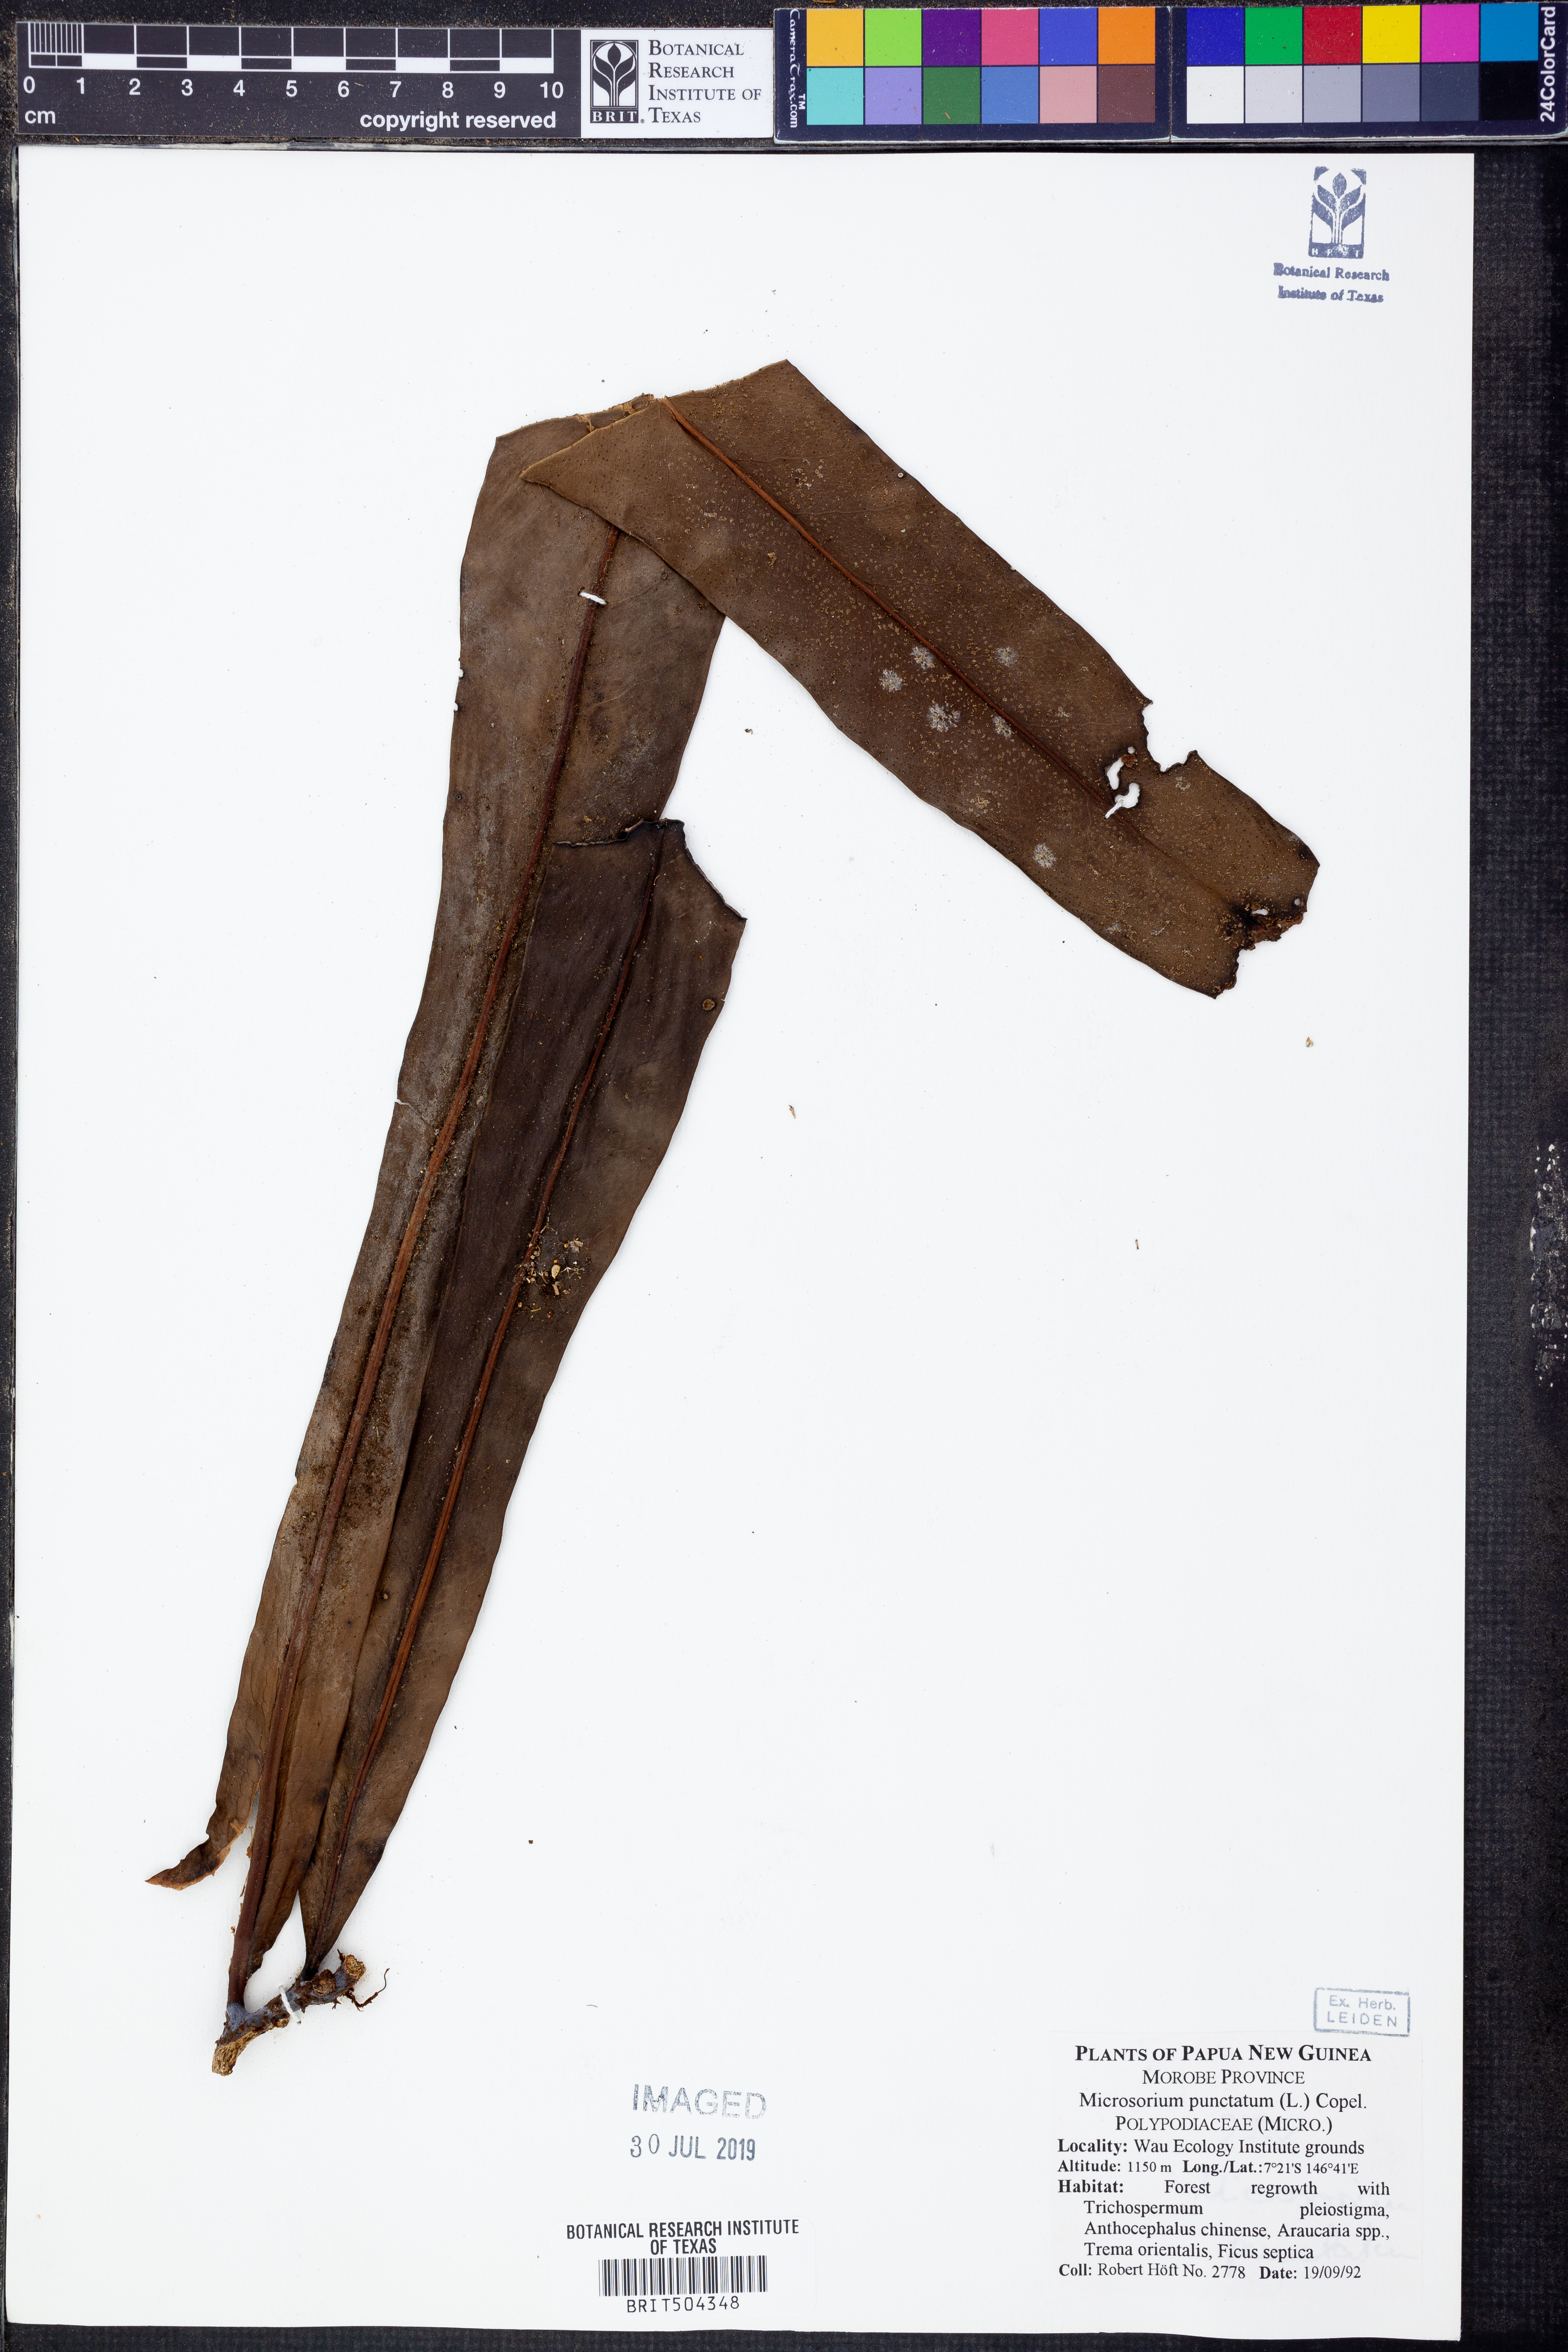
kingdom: Plantae
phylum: Tracheophyta
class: Polypodiopsida
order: Polypodiales
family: Polypodiaceae
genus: Microsorum
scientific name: Microsorum punctatum
